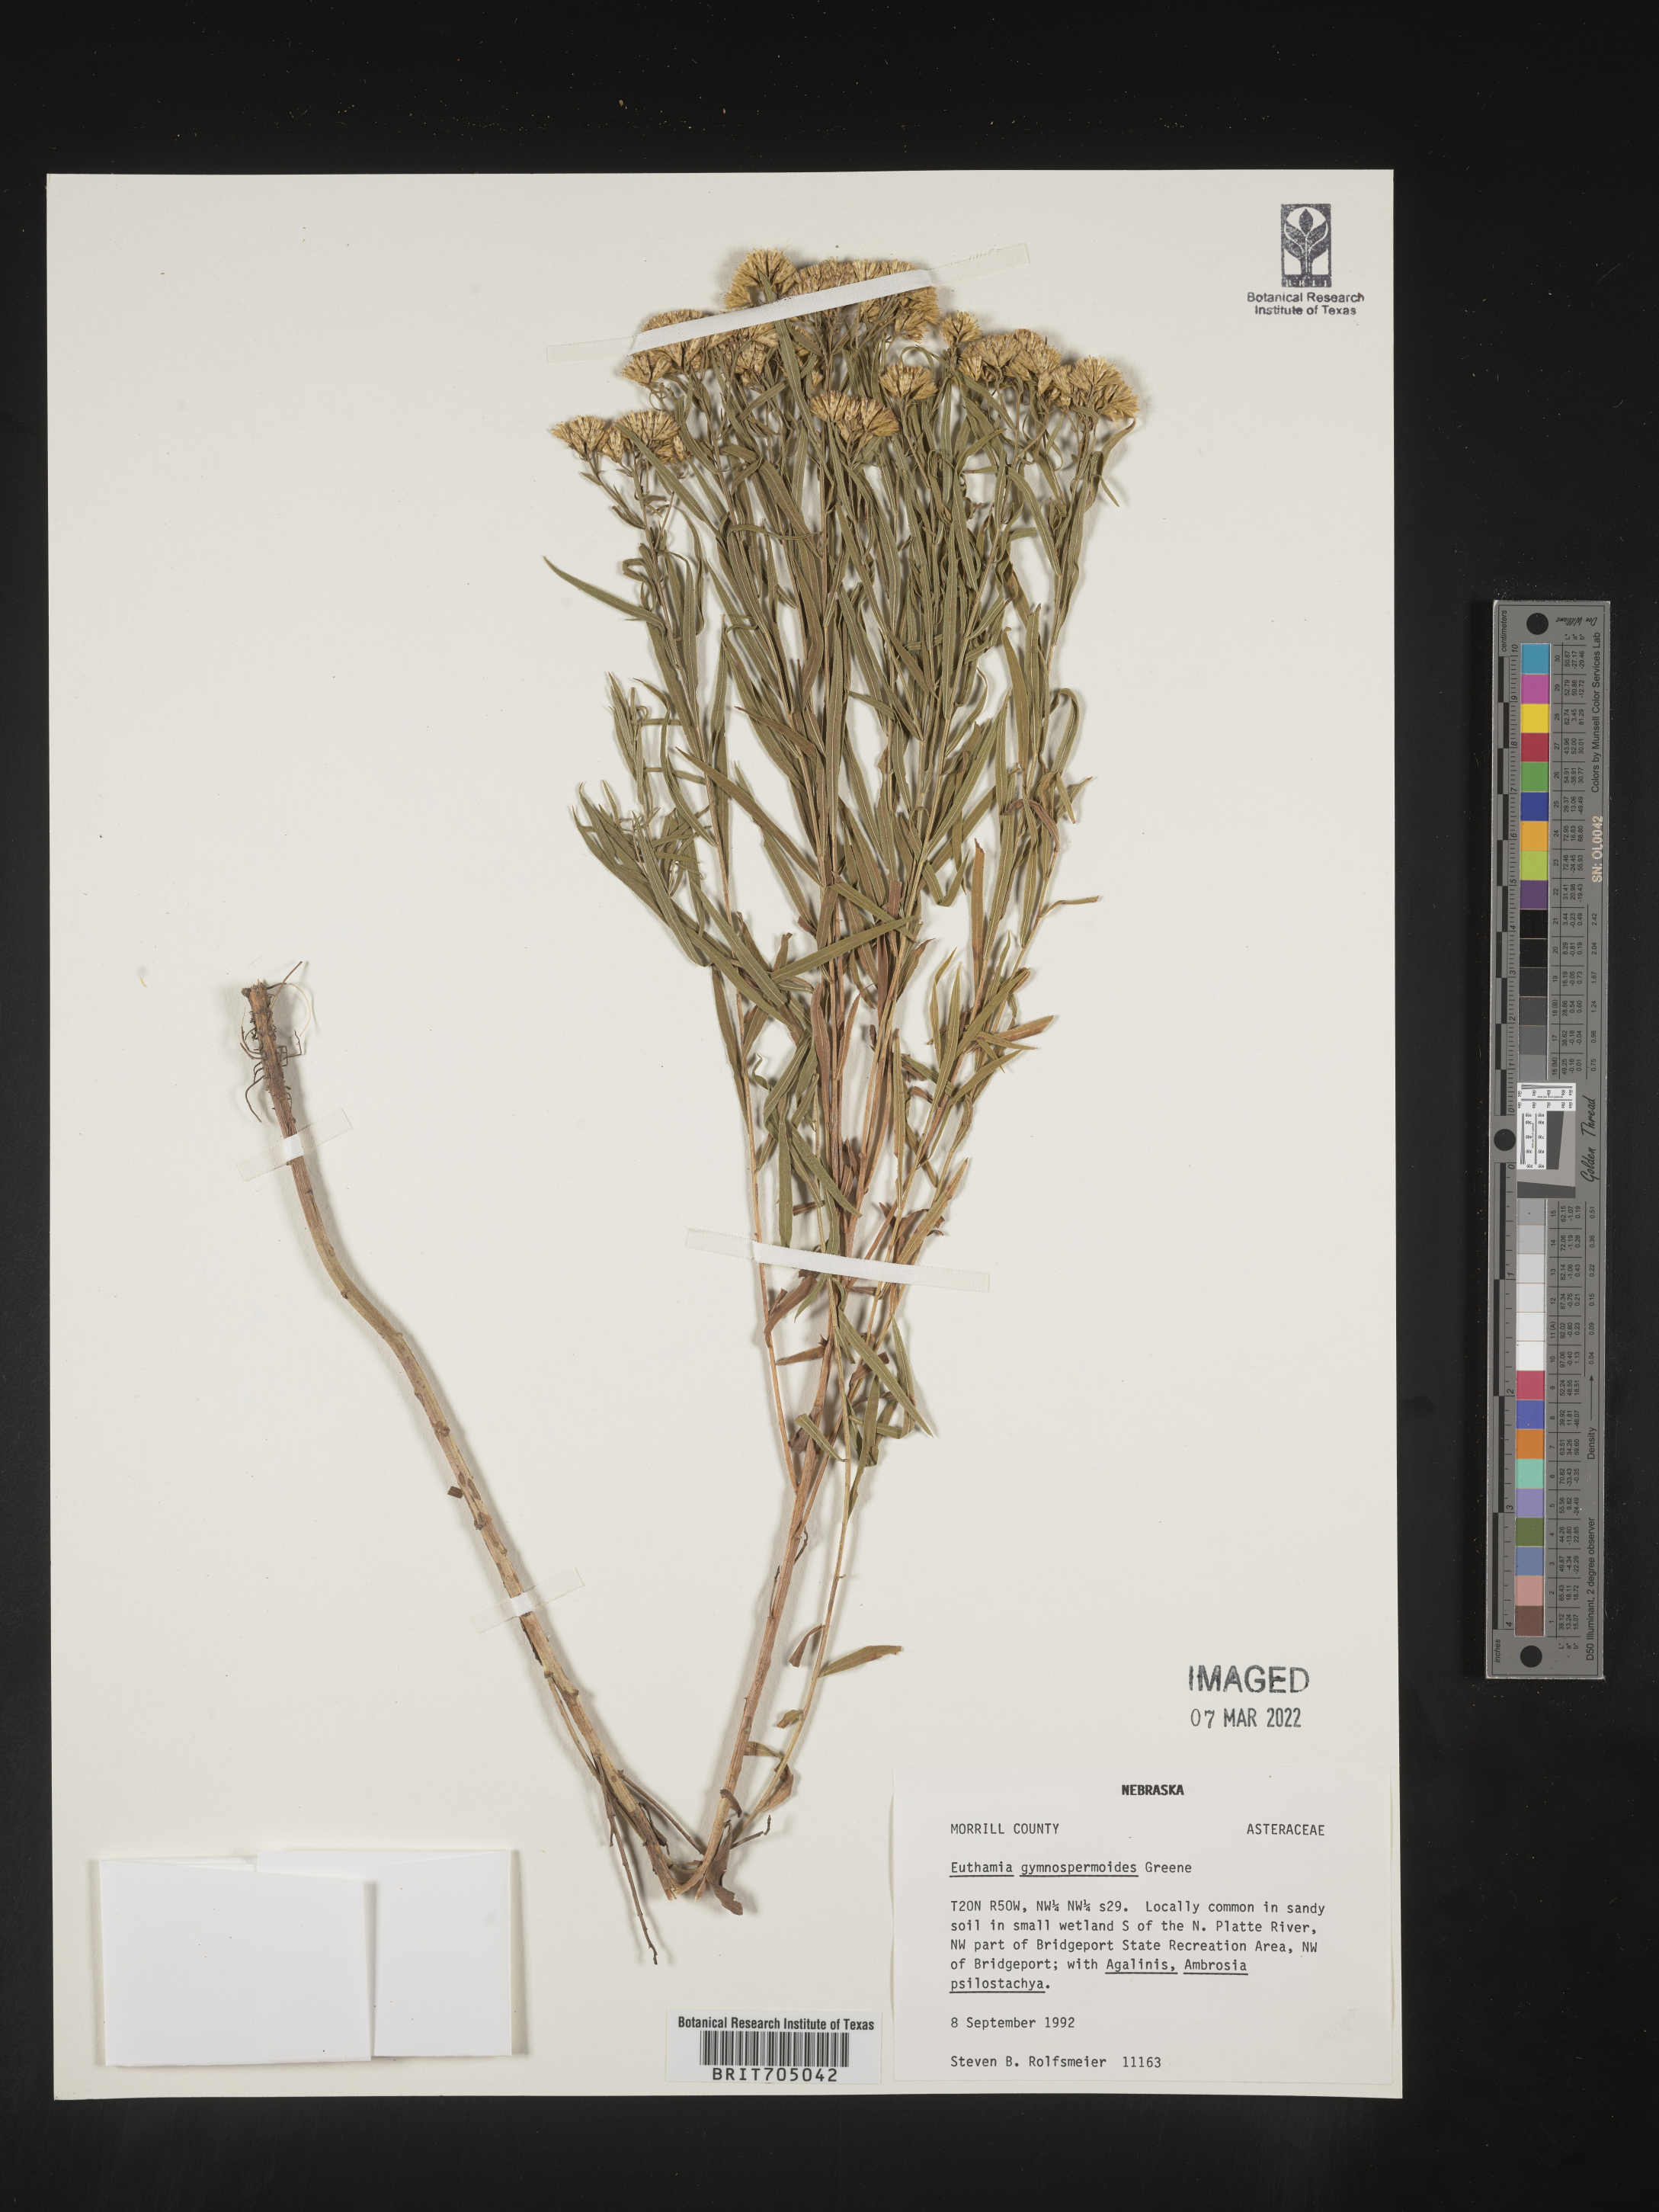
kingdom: Plantae
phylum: Tracheophyta
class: Magnoliopsida
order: Asterales
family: Asteraceae
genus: Euthamia
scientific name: Euthamia gymnospermoides
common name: Great plains goldentop
